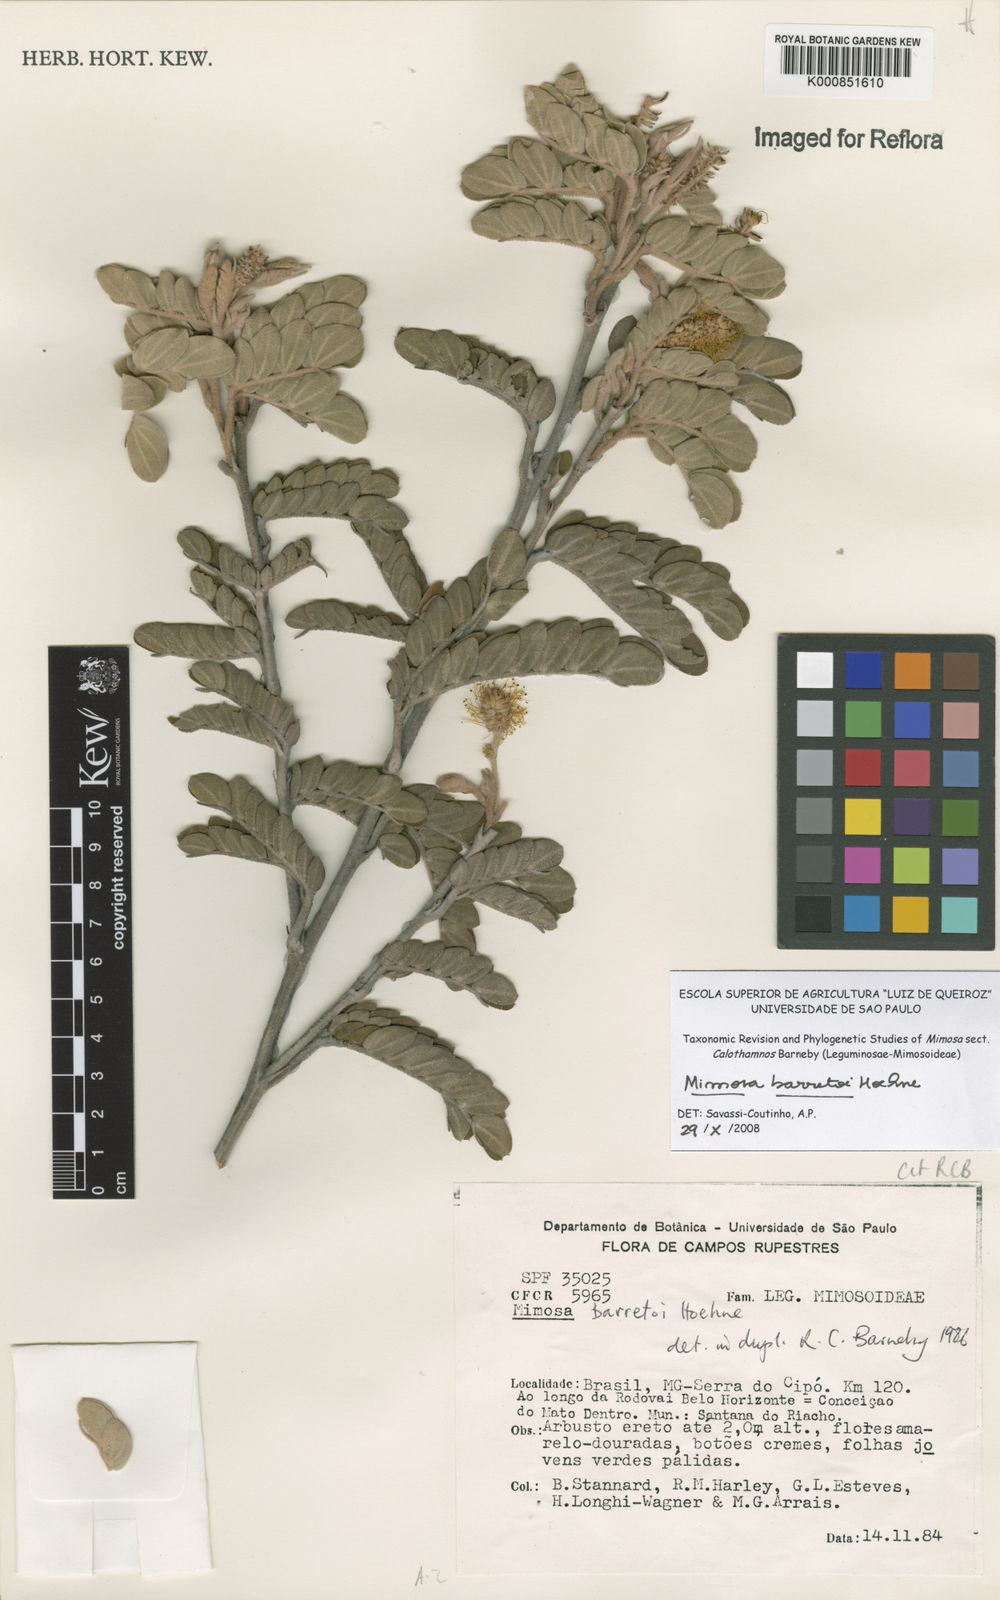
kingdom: Plantae
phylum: Tracheophyta
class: Magnoliopsida
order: Fabales
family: Fabaceae
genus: Mimosa
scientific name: Mimosa barretoi
